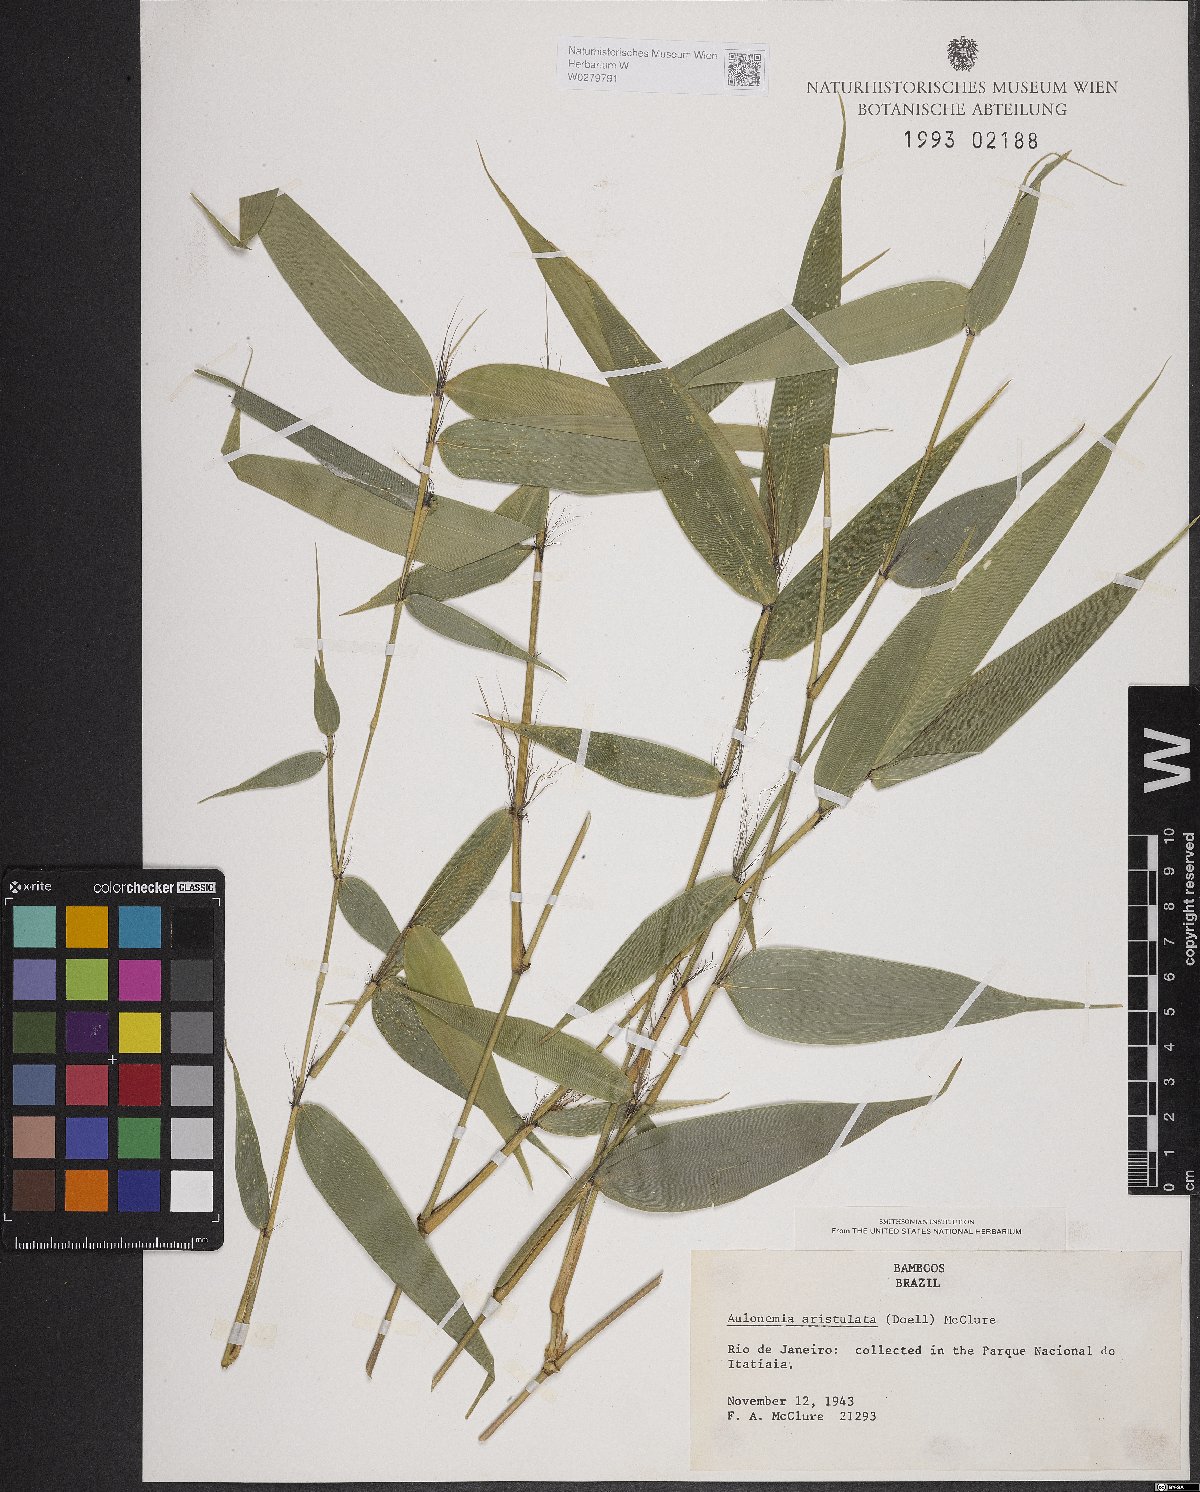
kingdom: Plantae
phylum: Tracheophyta
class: Liliopsida
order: Poales
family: Poaceae
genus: Aulonemia
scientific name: Aulonemia aristulata
